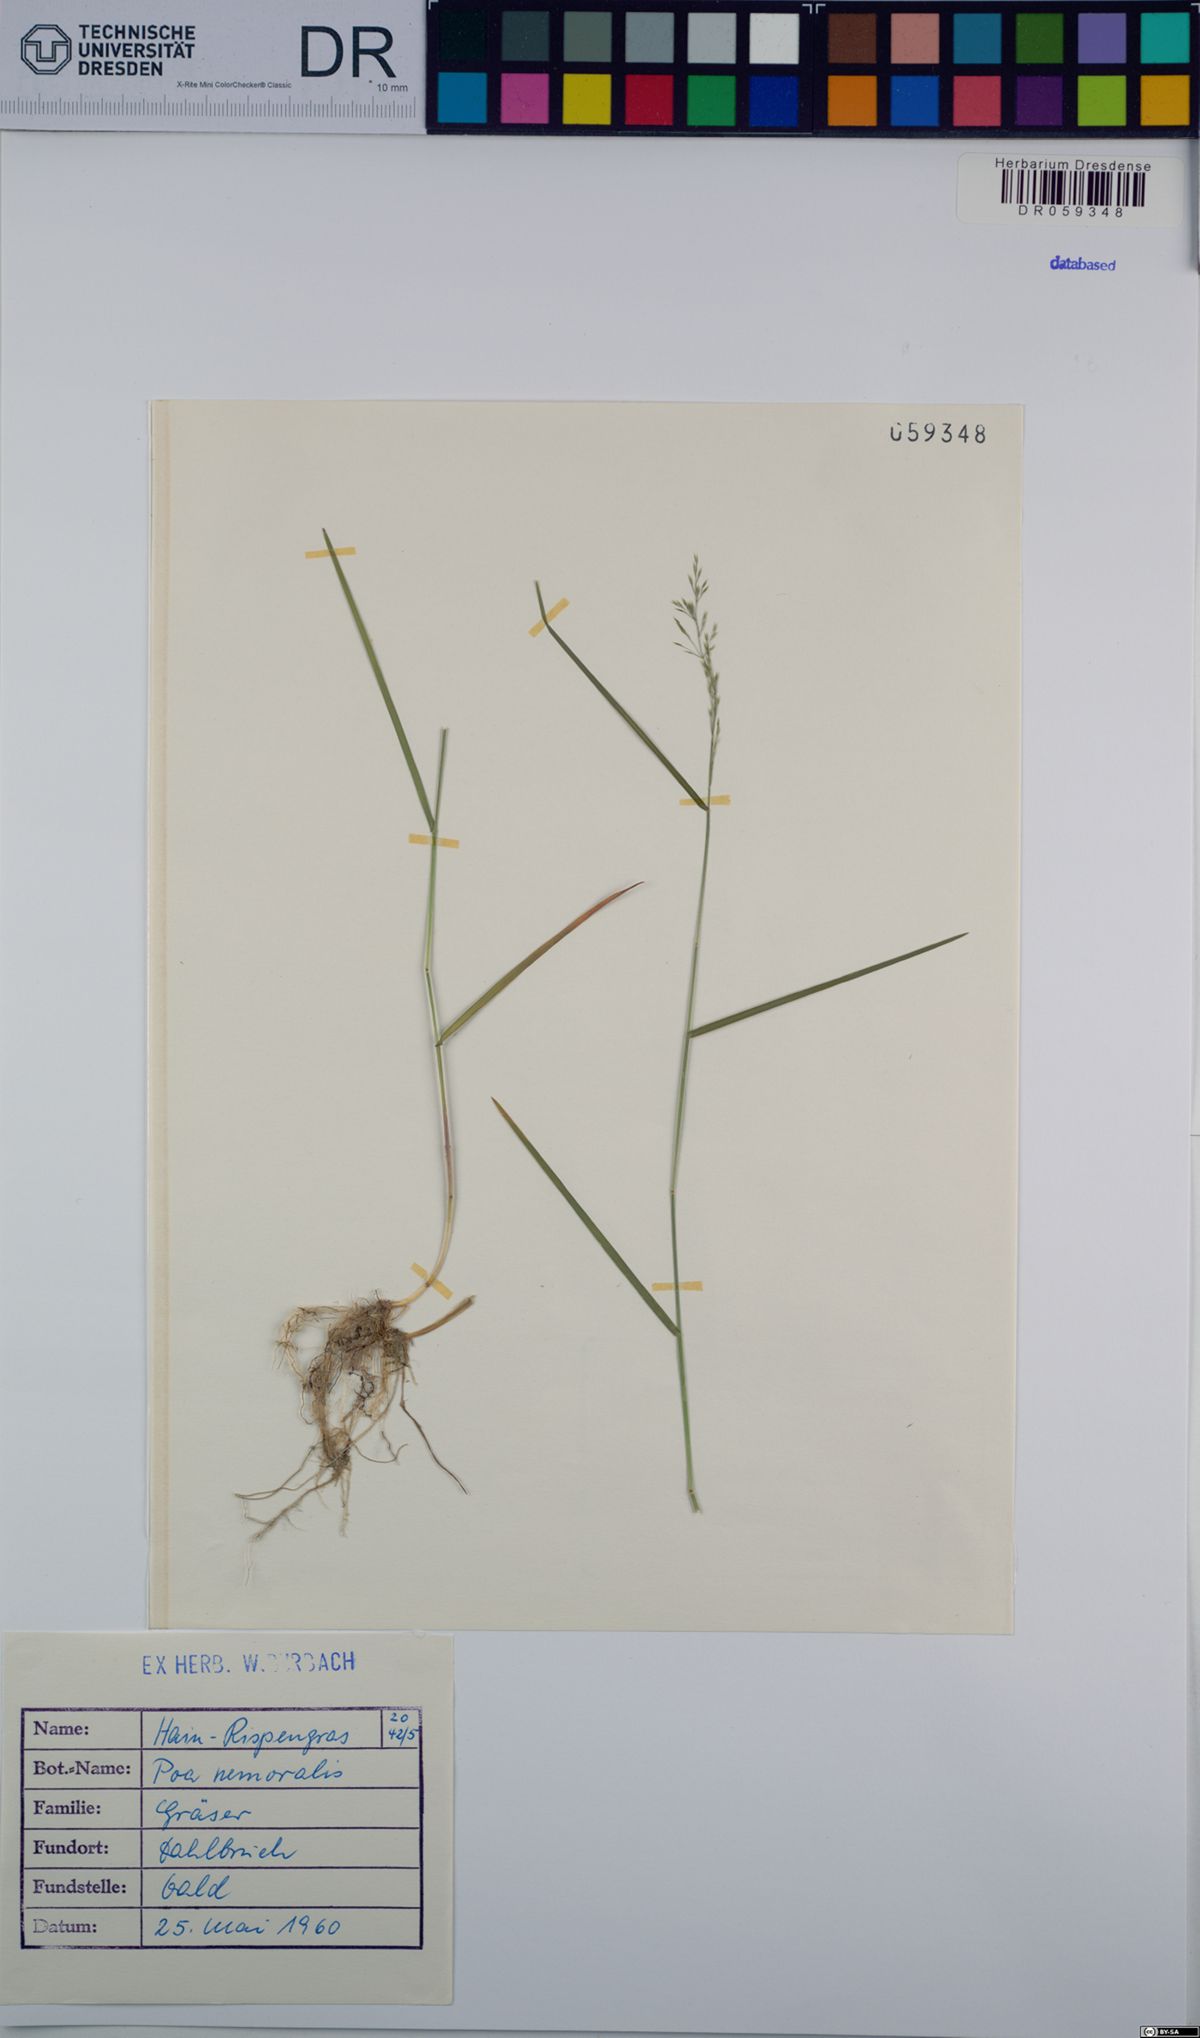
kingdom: Plantae
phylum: Tracheophyta
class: Liliopsida
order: Poales
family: Poaceae
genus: Poa
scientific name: Poa nemoralis
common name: Wood bluegrass
